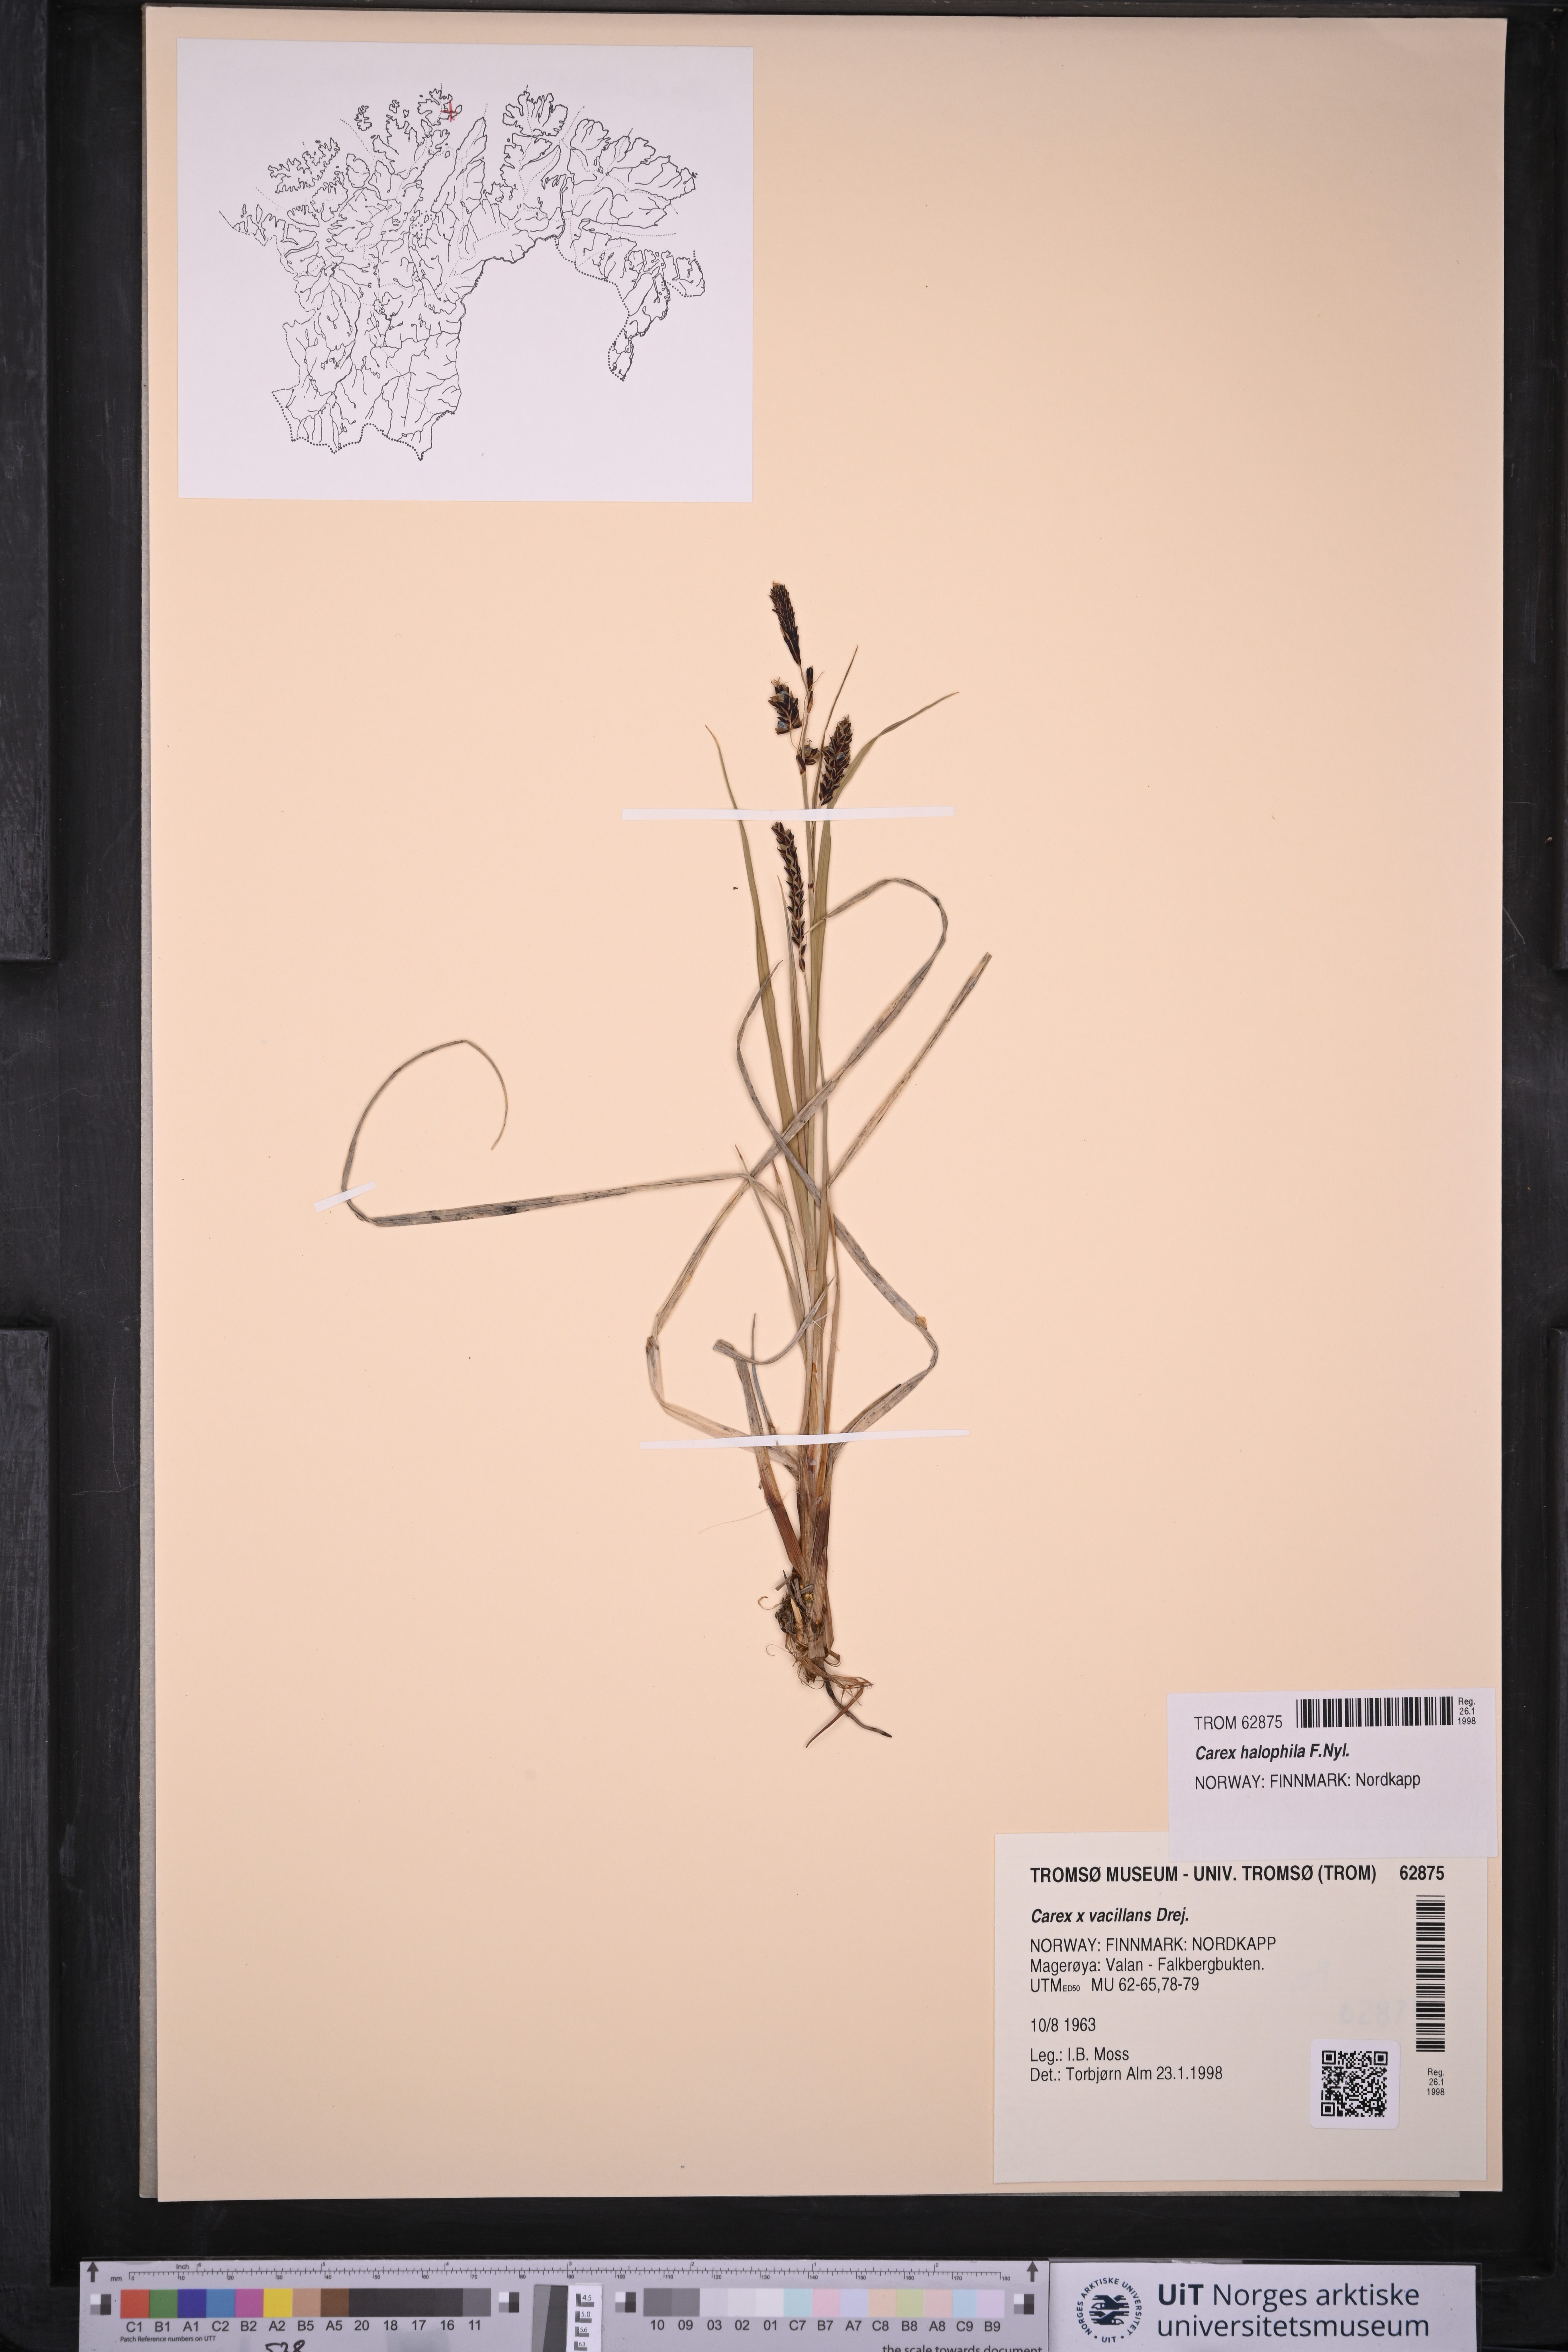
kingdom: Plantae
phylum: Tracheophyta
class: Liliopsida
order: Poales
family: Cyperaceae
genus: Carex
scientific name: Carex halophila
